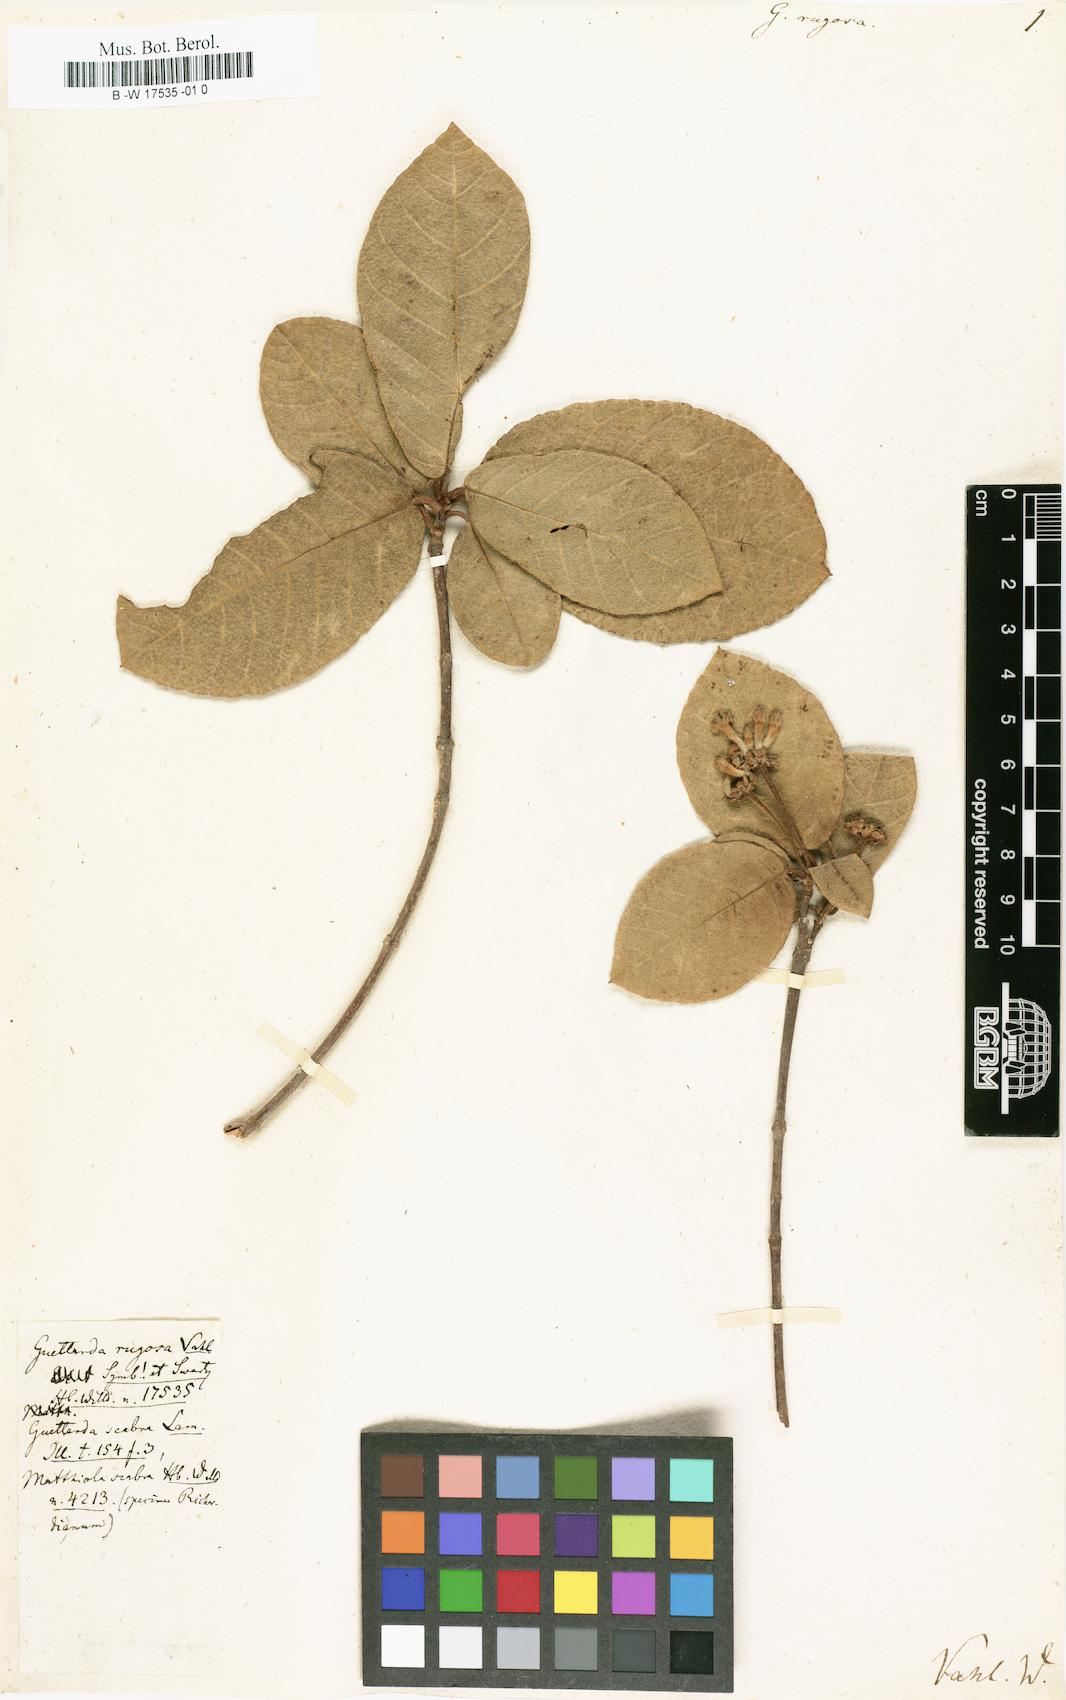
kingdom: Plantae
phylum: Tracheophyta
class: Magnoliopsida
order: Gentianales
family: Rubiaceae
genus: Guettarda
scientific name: Guettarda scabra
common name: Pigeon bay
